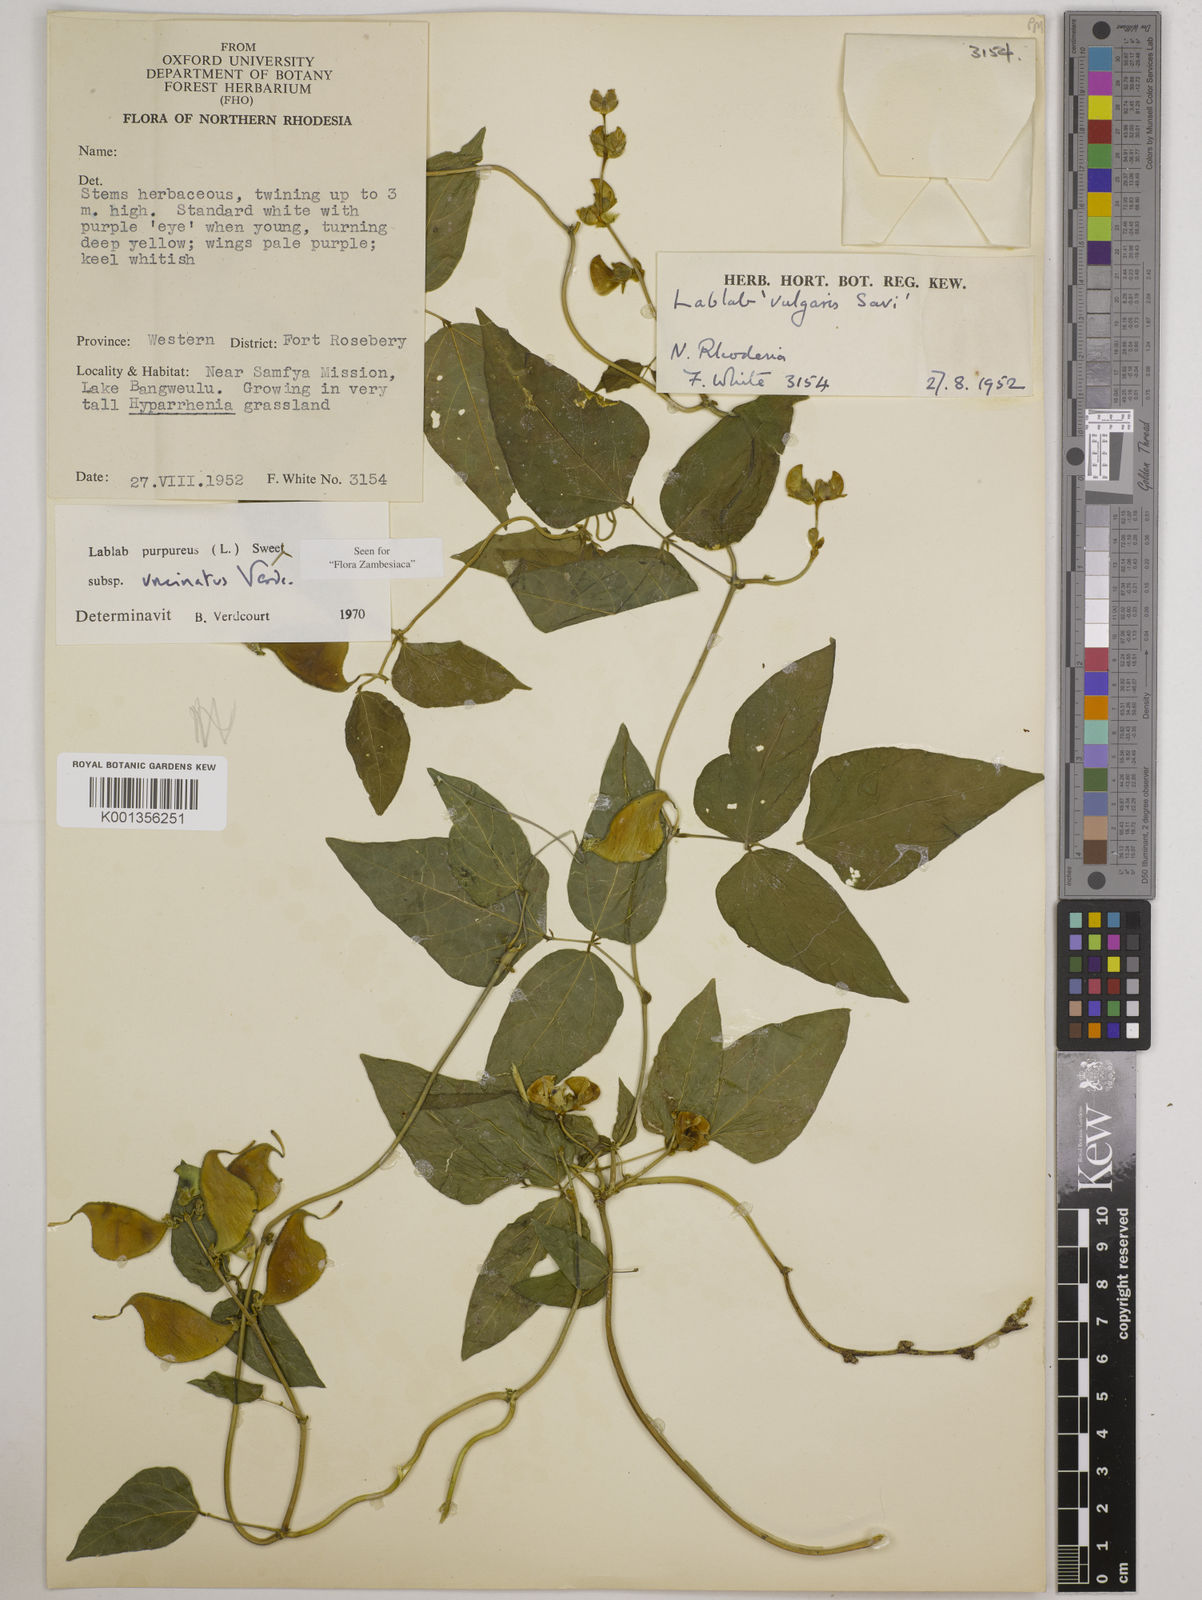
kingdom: Plantae
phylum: Tracheophyta
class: Magnoliopsida
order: Fabales
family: Fabaceae
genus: Lablab
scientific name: Lablab purpureus
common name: Lablab-bean
